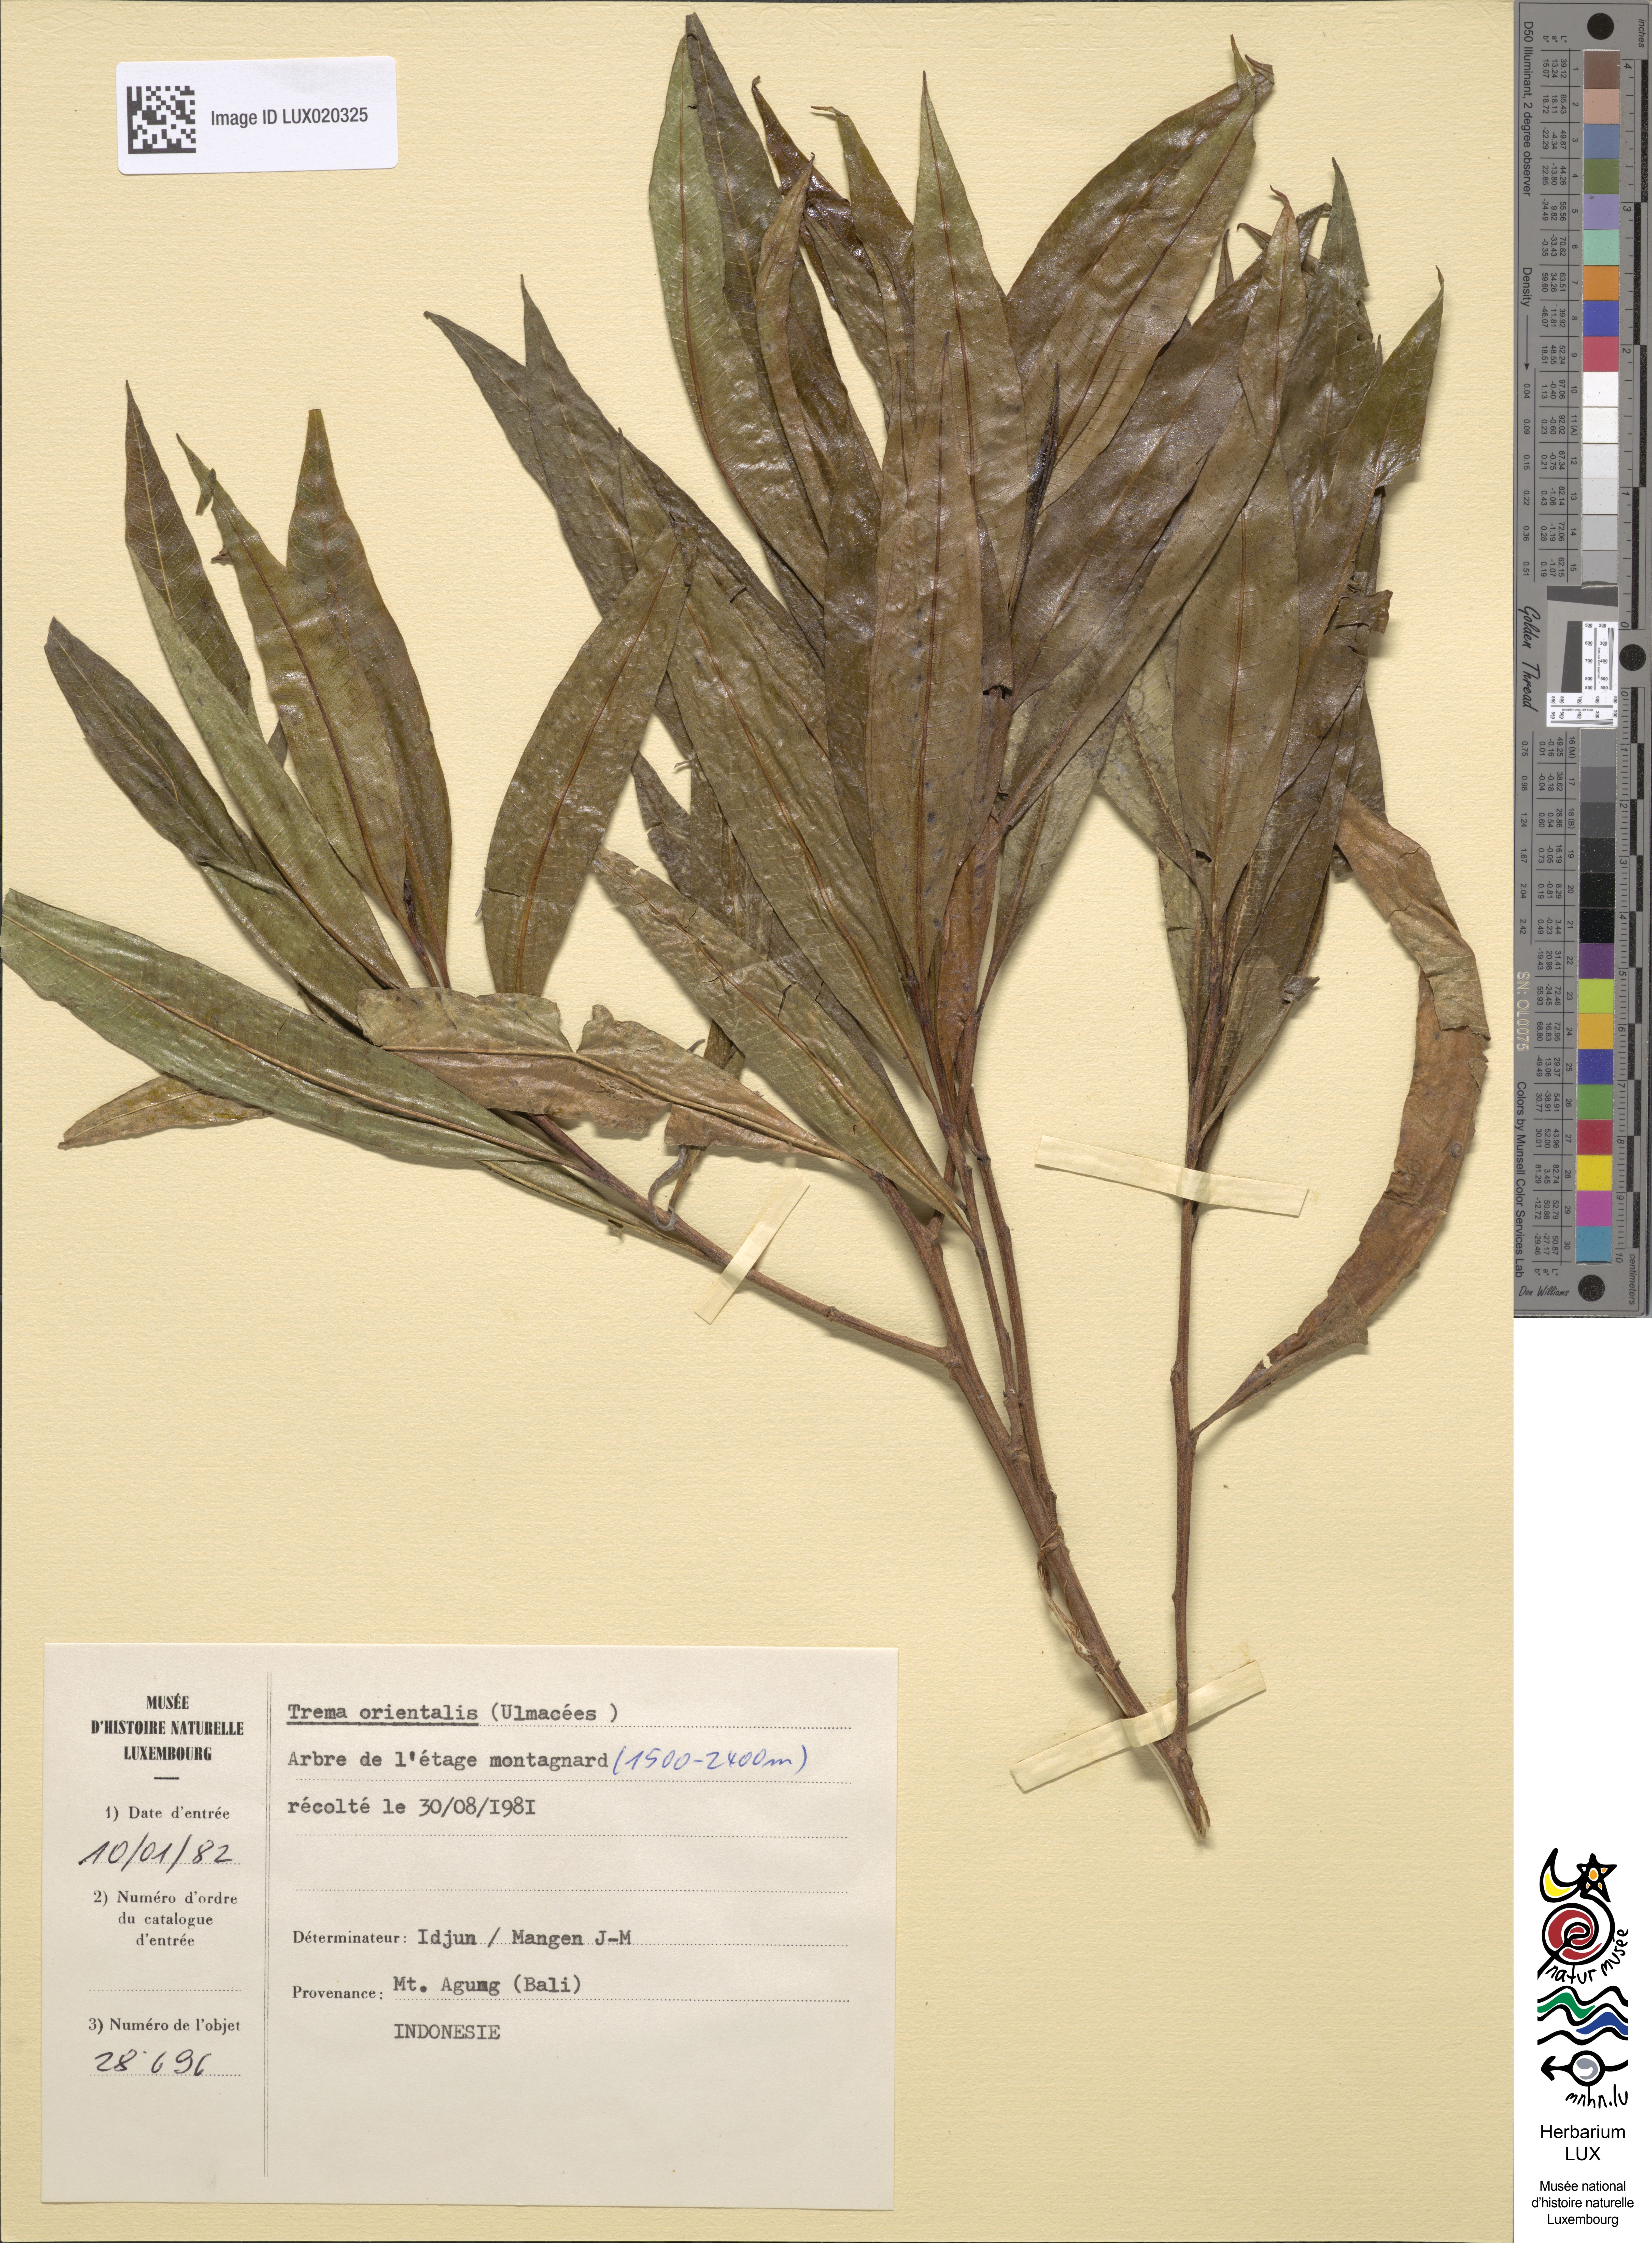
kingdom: Plantae
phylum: Tracheophyta
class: Magnoliopsida
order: Rosales
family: Cannabaceae
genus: Trema
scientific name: Trema orientale
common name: Indian charcoal tree
